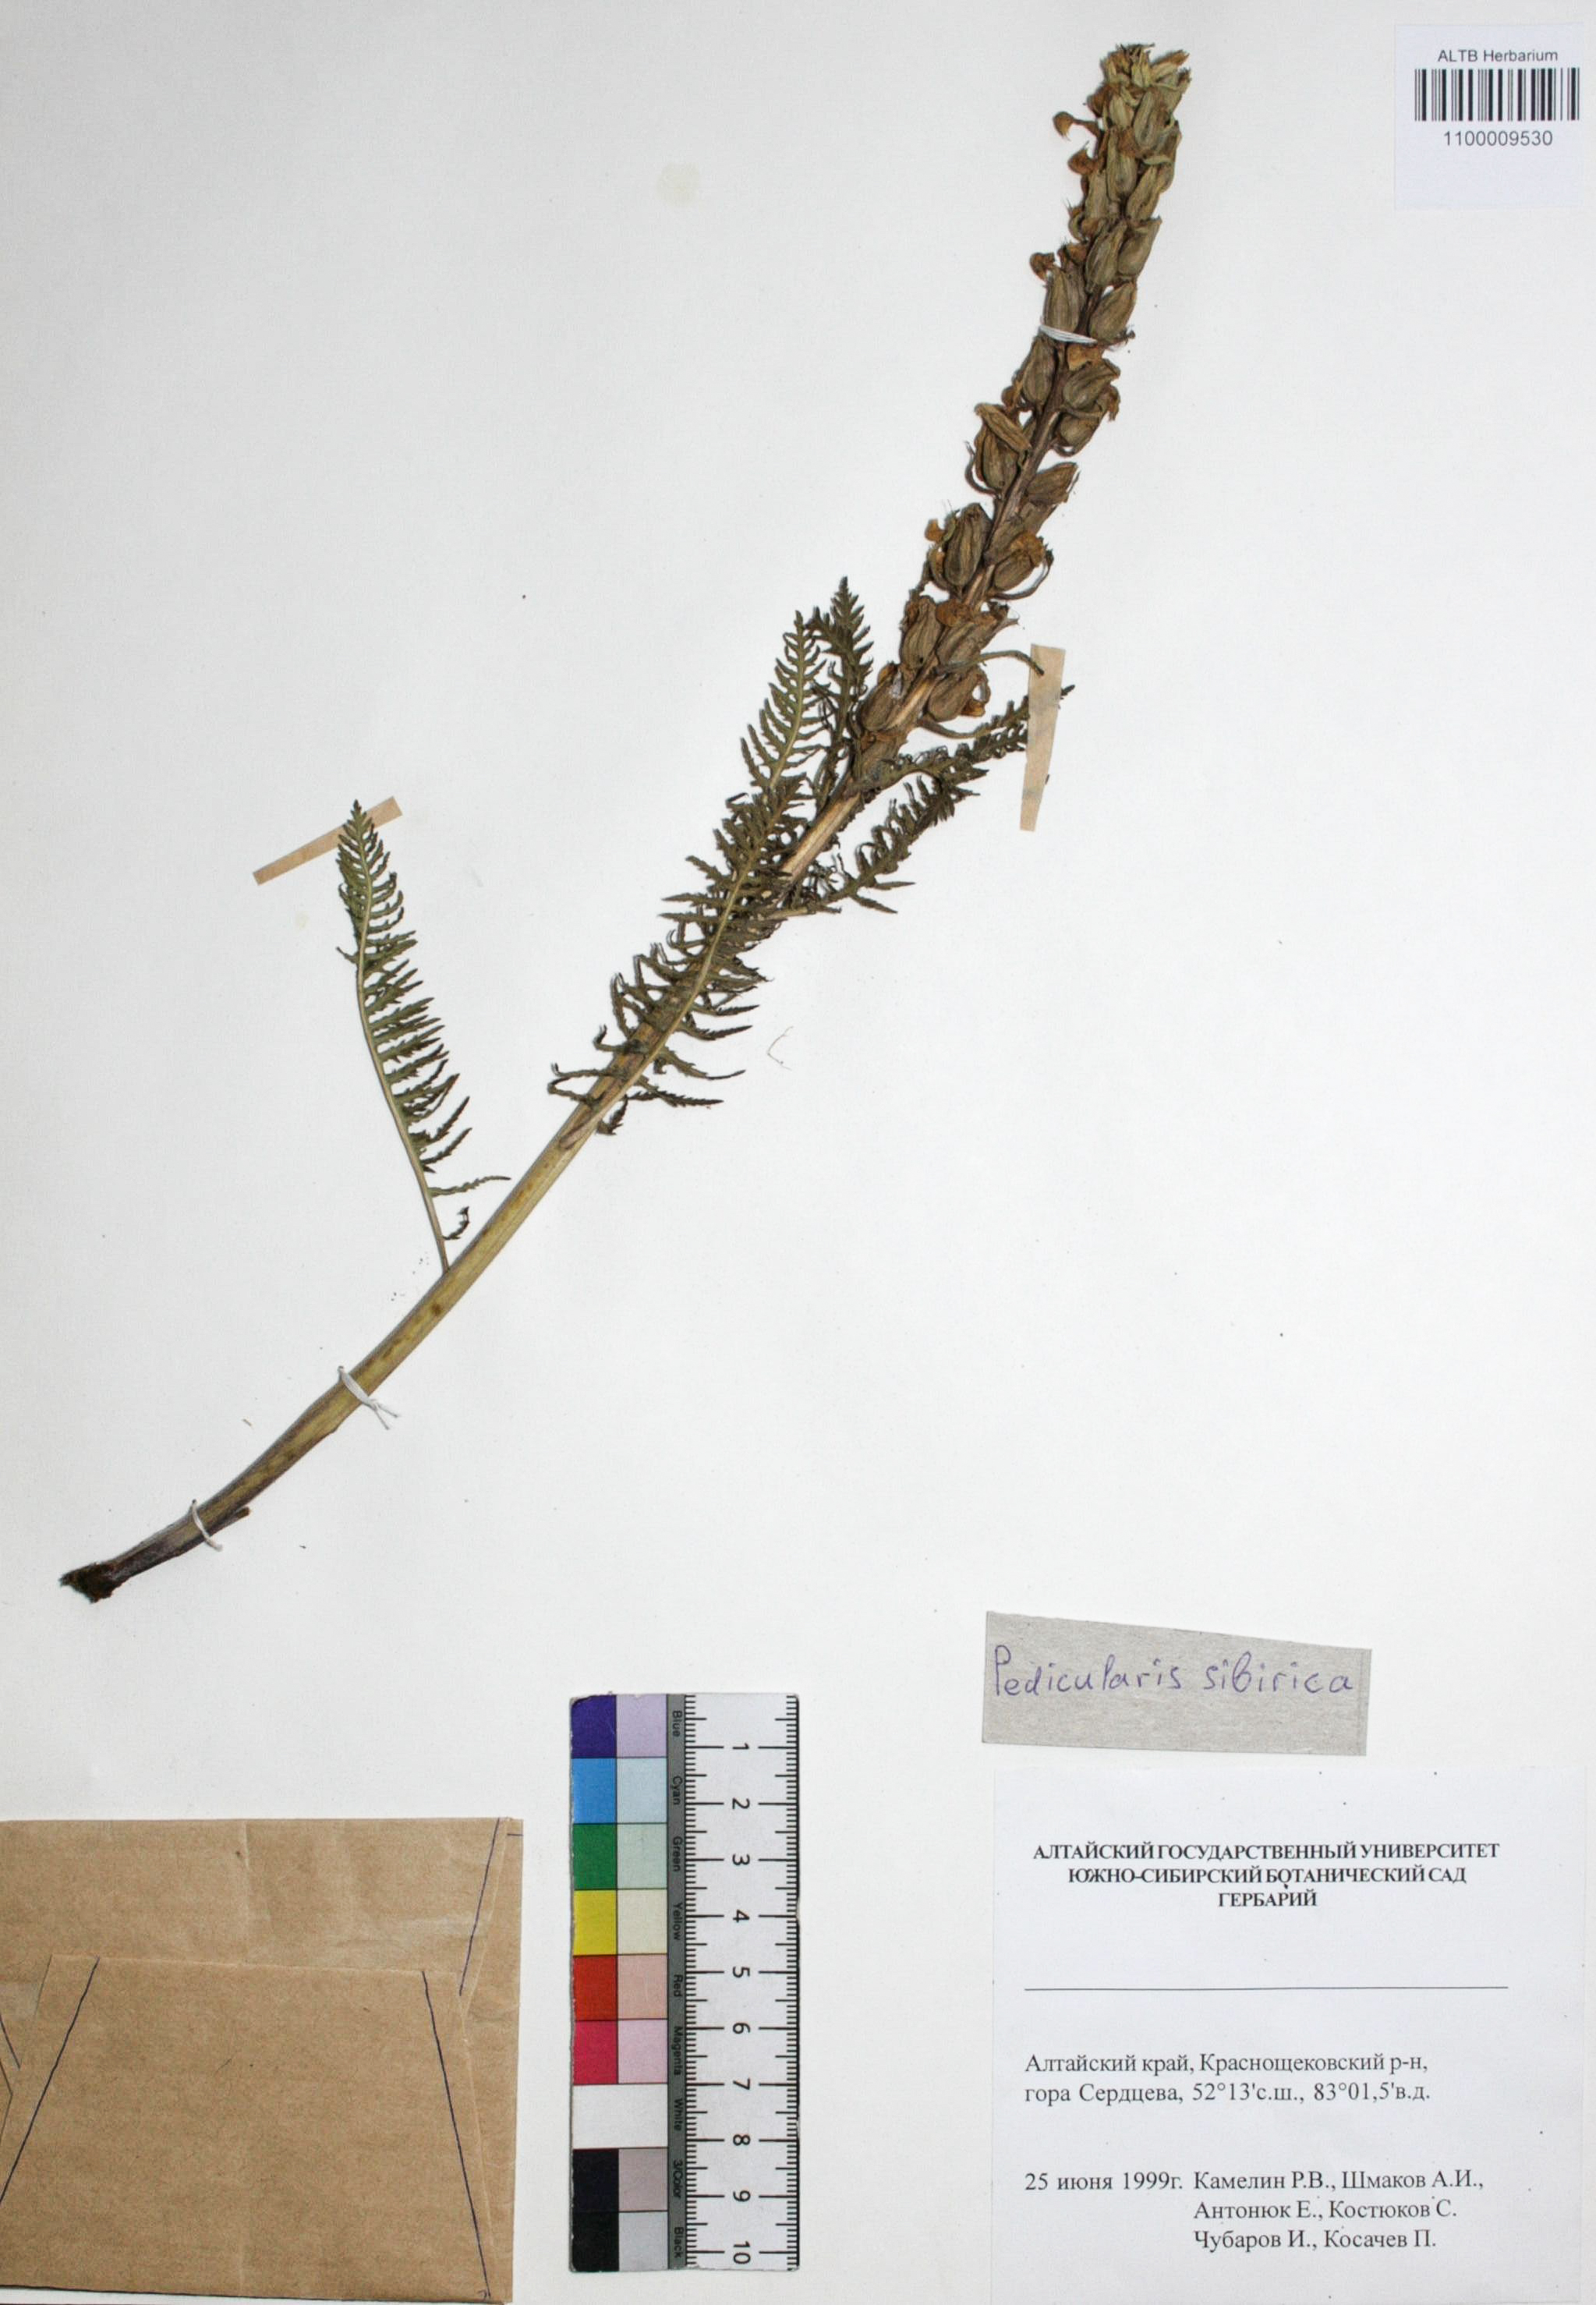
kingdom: Plantae
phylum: Tracheophyta
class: Magnoliopsida
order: Lamiales
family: Orobanchaceae
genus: Pedicularis
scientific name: Pedicularis sibirica
